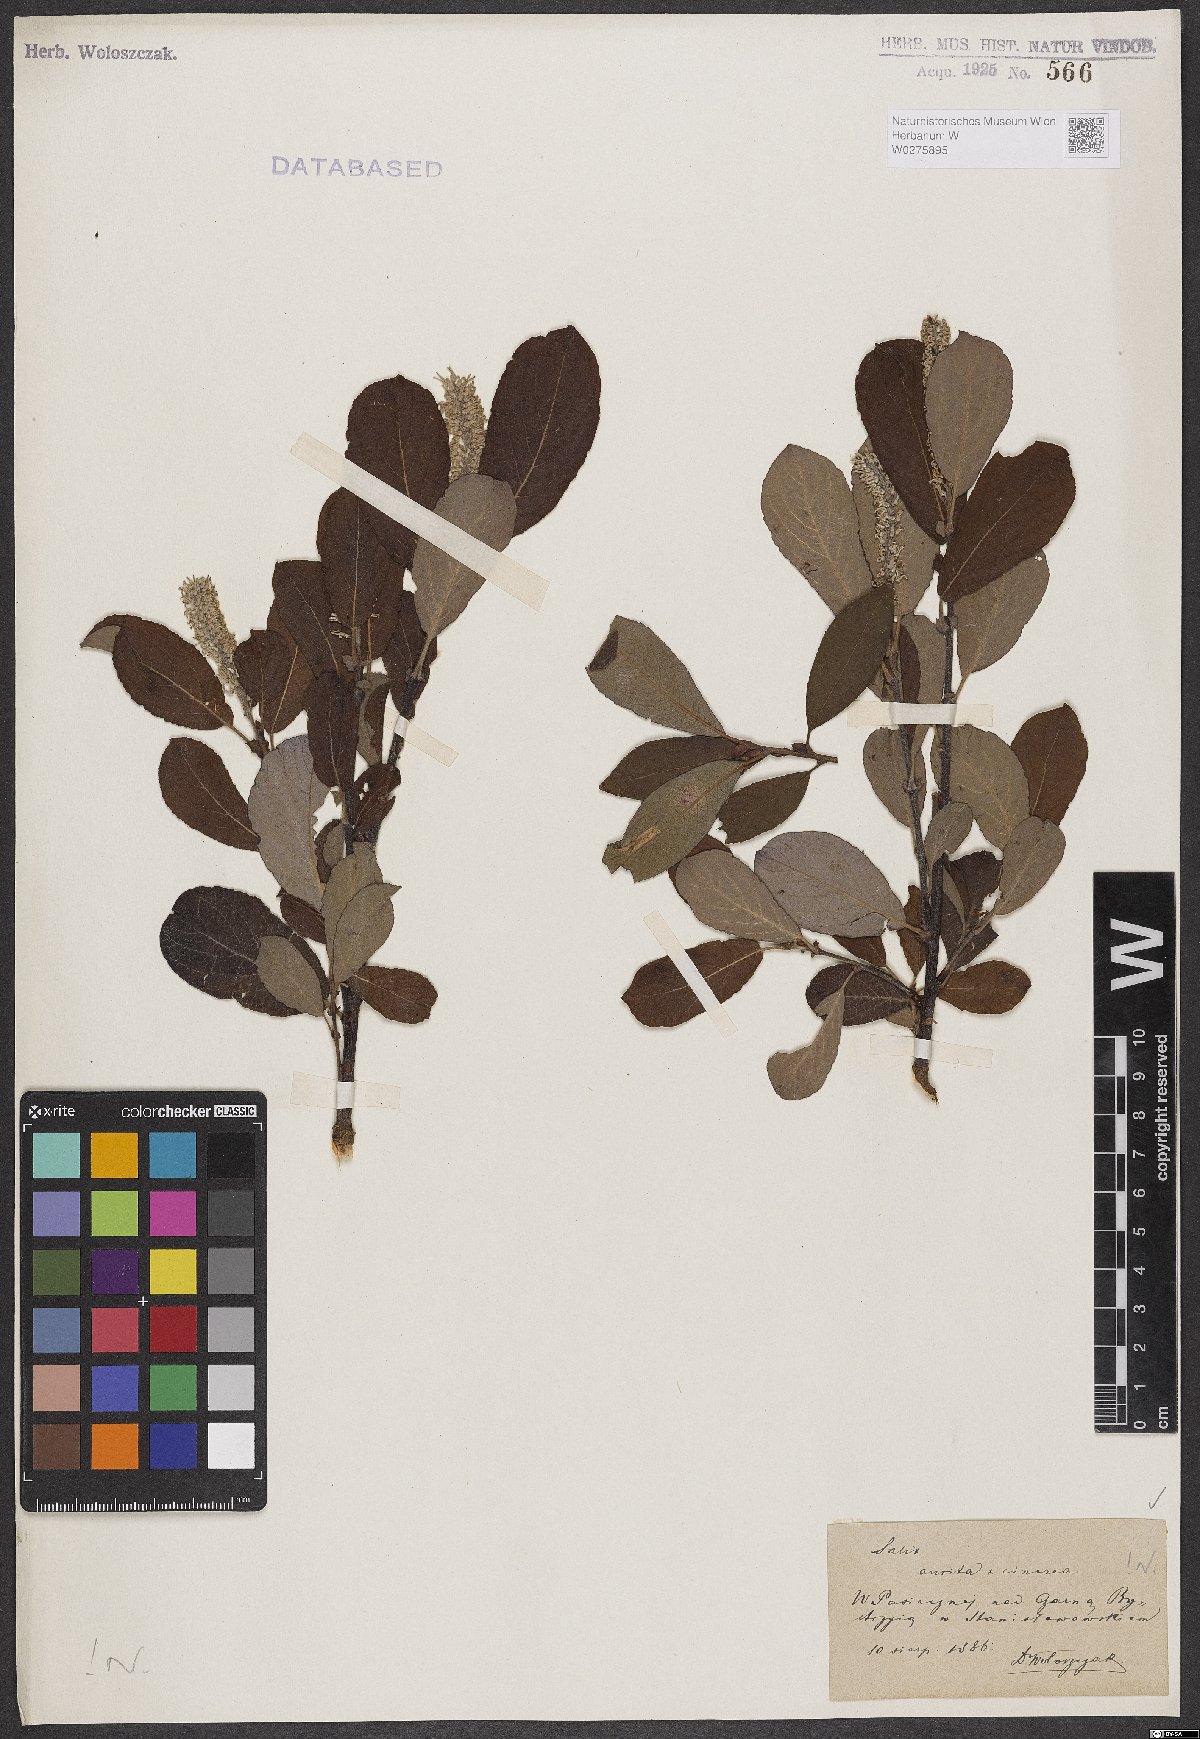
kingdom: Plantae
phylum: Tracheophyta
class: Magnoliopsida
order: Malpighiales
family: Salicaceae
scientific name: Salicaceae
